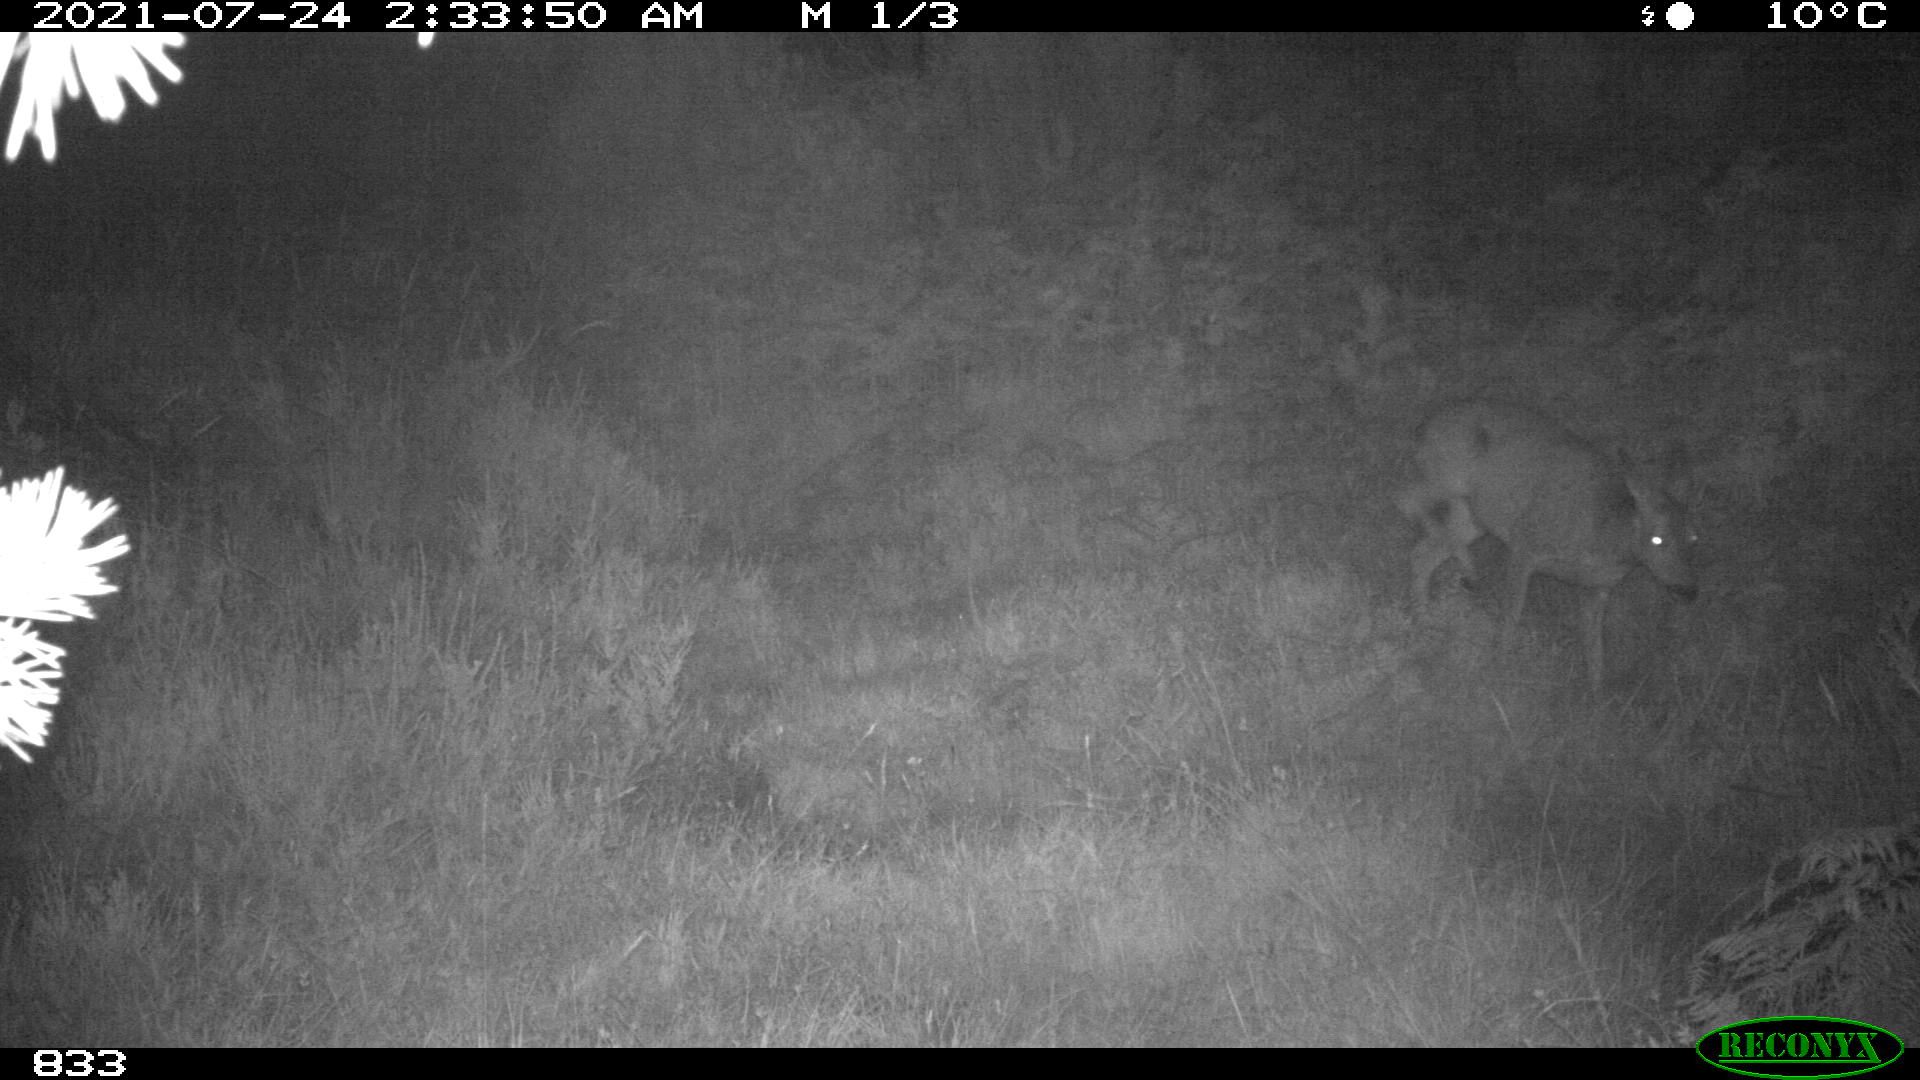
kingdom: Animalia
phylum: Chordata
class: Mammalia
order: Artiodactyla
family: Cervidae
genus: Capreolus
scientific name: Capreolus capreolus
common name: Western roe deer
